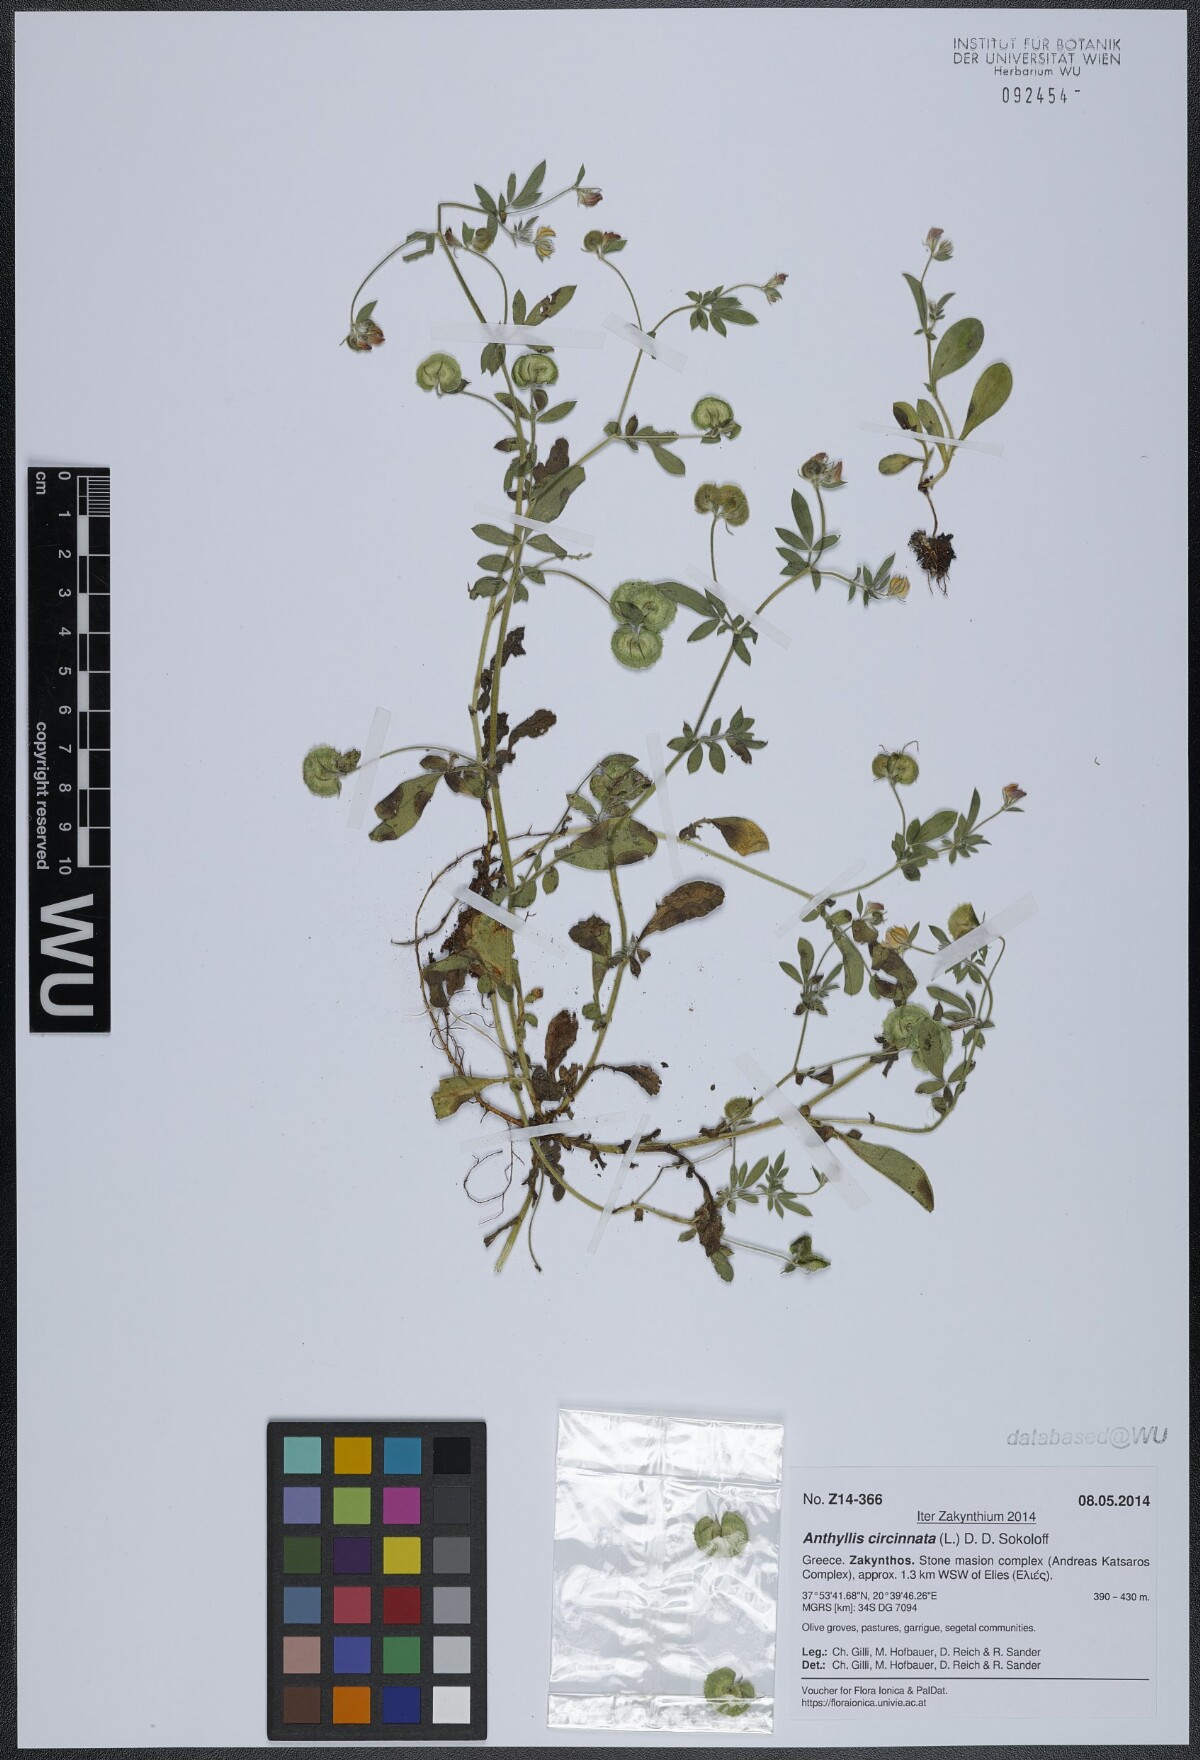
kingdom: Plantae
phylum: Tracheophyta
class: Magnoliopsida
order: Fabales
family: Fabaceae
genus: Anthyllis
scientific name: Anthyllis circinnata
